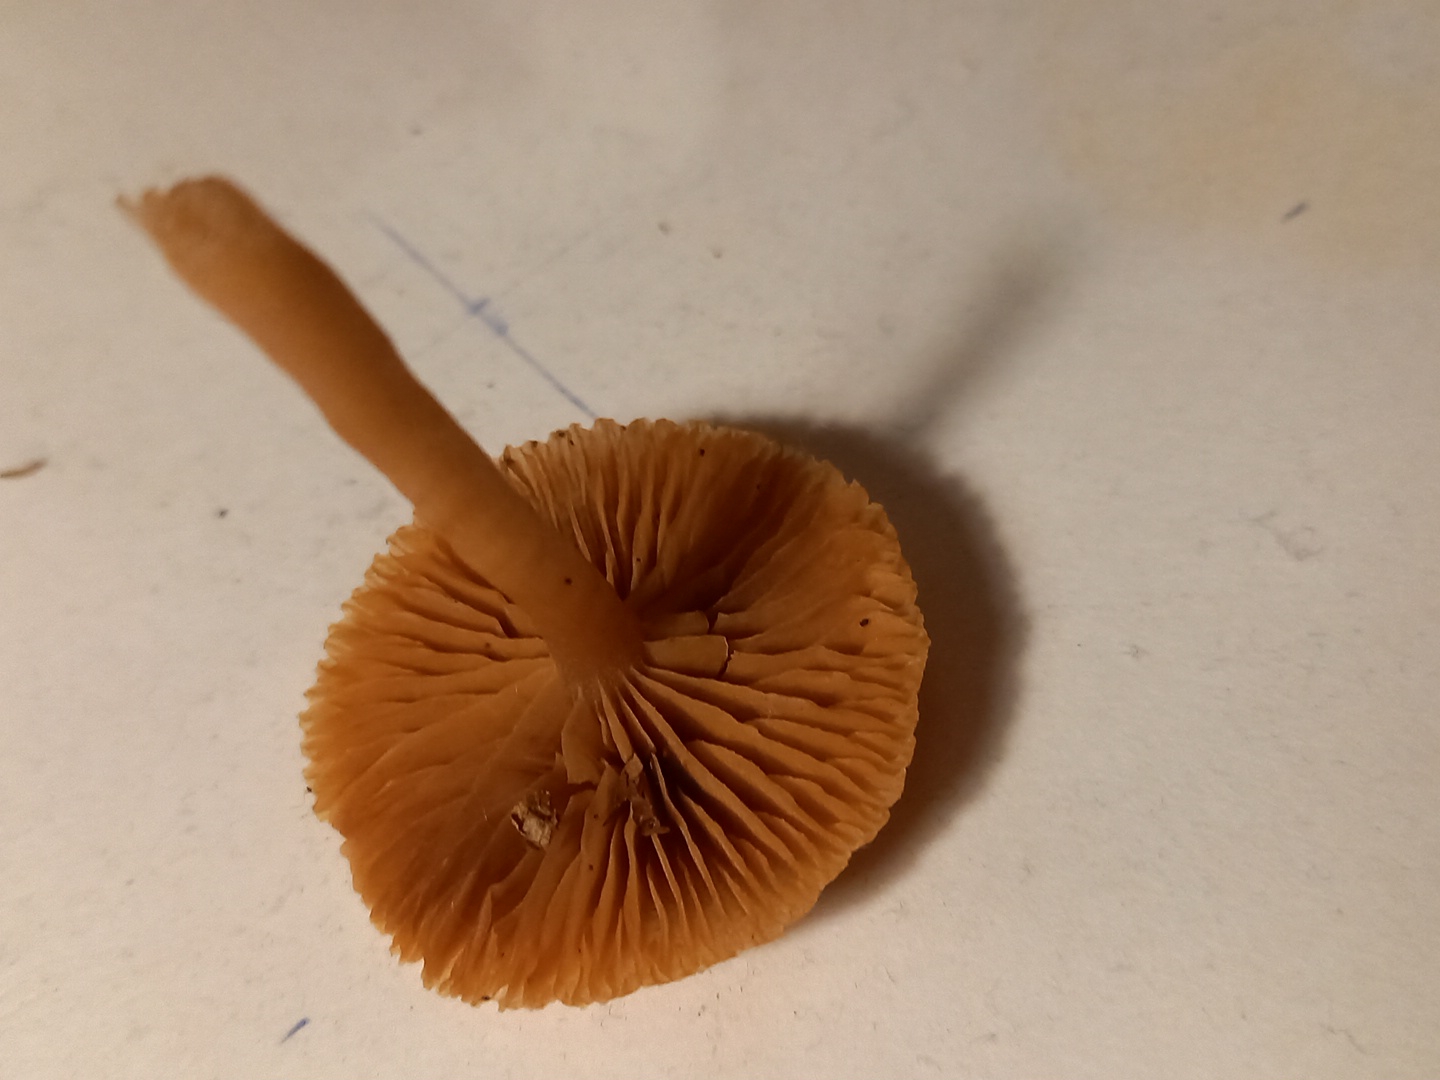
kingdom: Fungi
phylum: Basidiomycota
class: Agaricomycetes
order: Agaricales
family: Tubariaceae
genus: Tubaria
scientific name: Tubaria furfuracea
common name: kliddet fnughat
